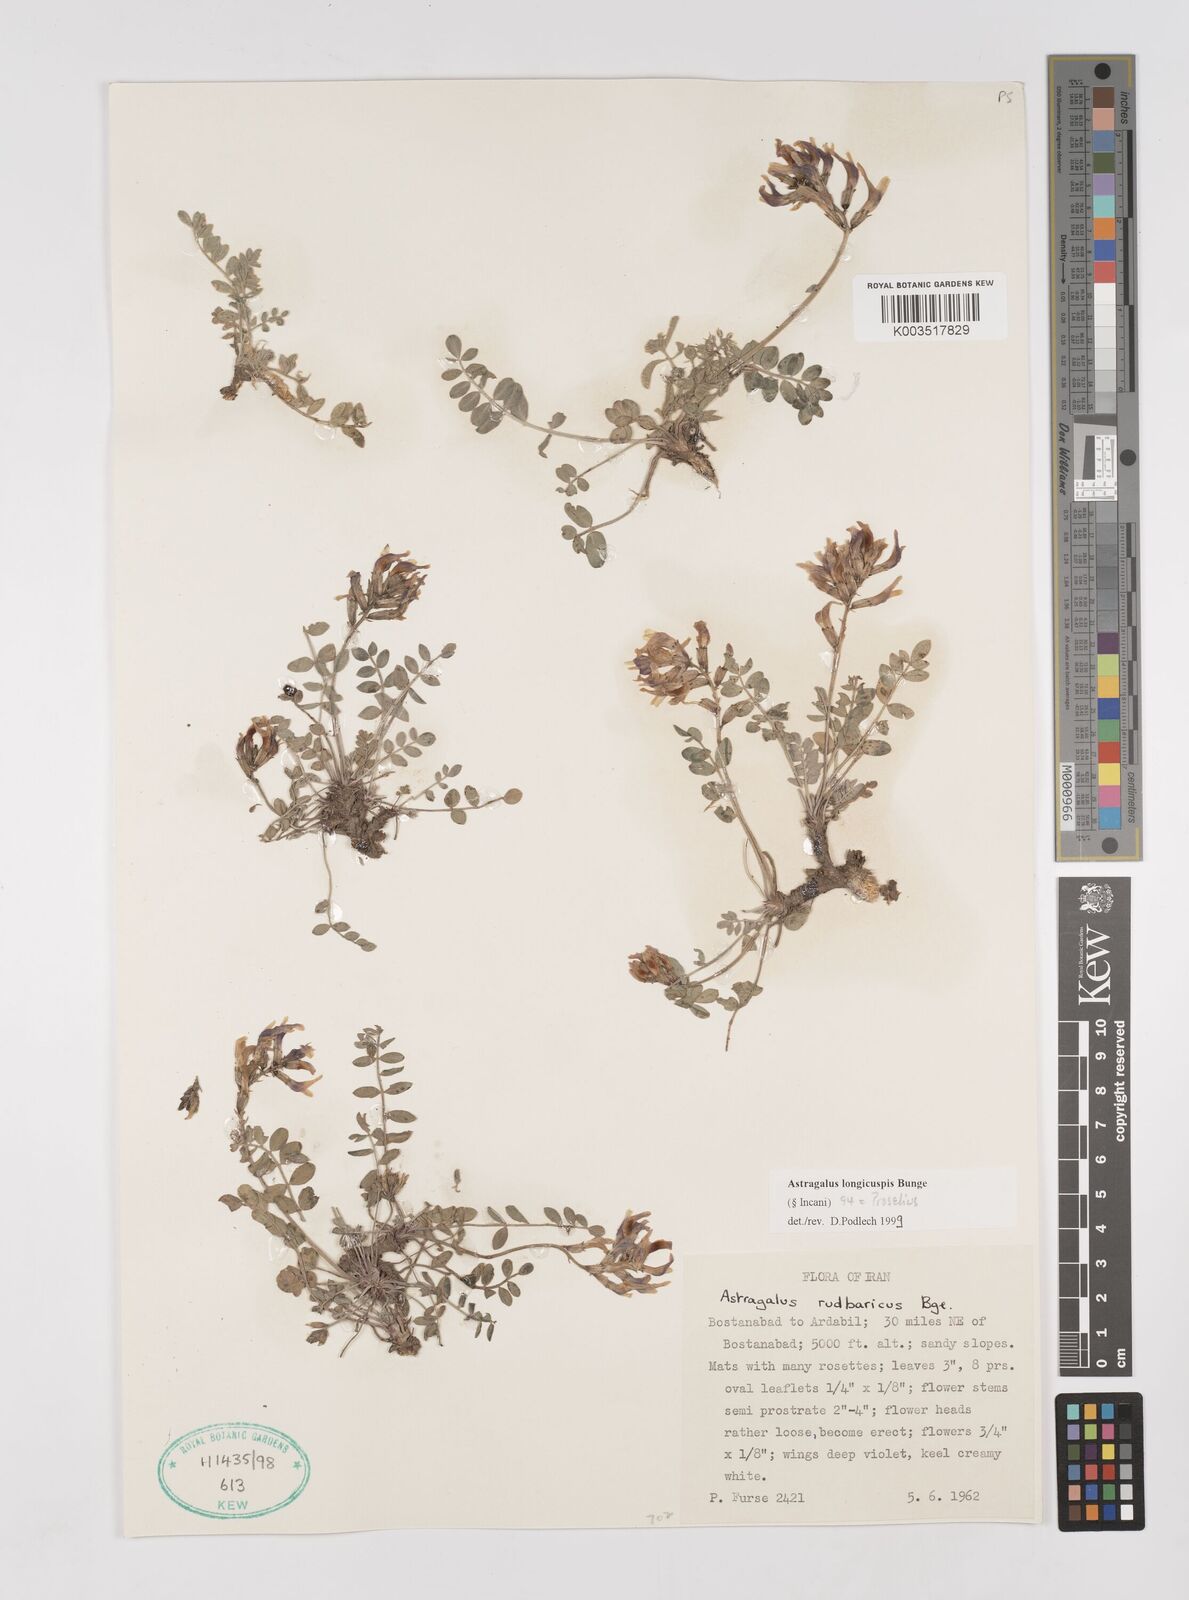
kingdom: Plantae
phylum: Tracheophyta
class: Magnoliopsida
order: Fabales
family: Fabaceae
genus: Astragalus
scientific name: Astragalus longicuspis
